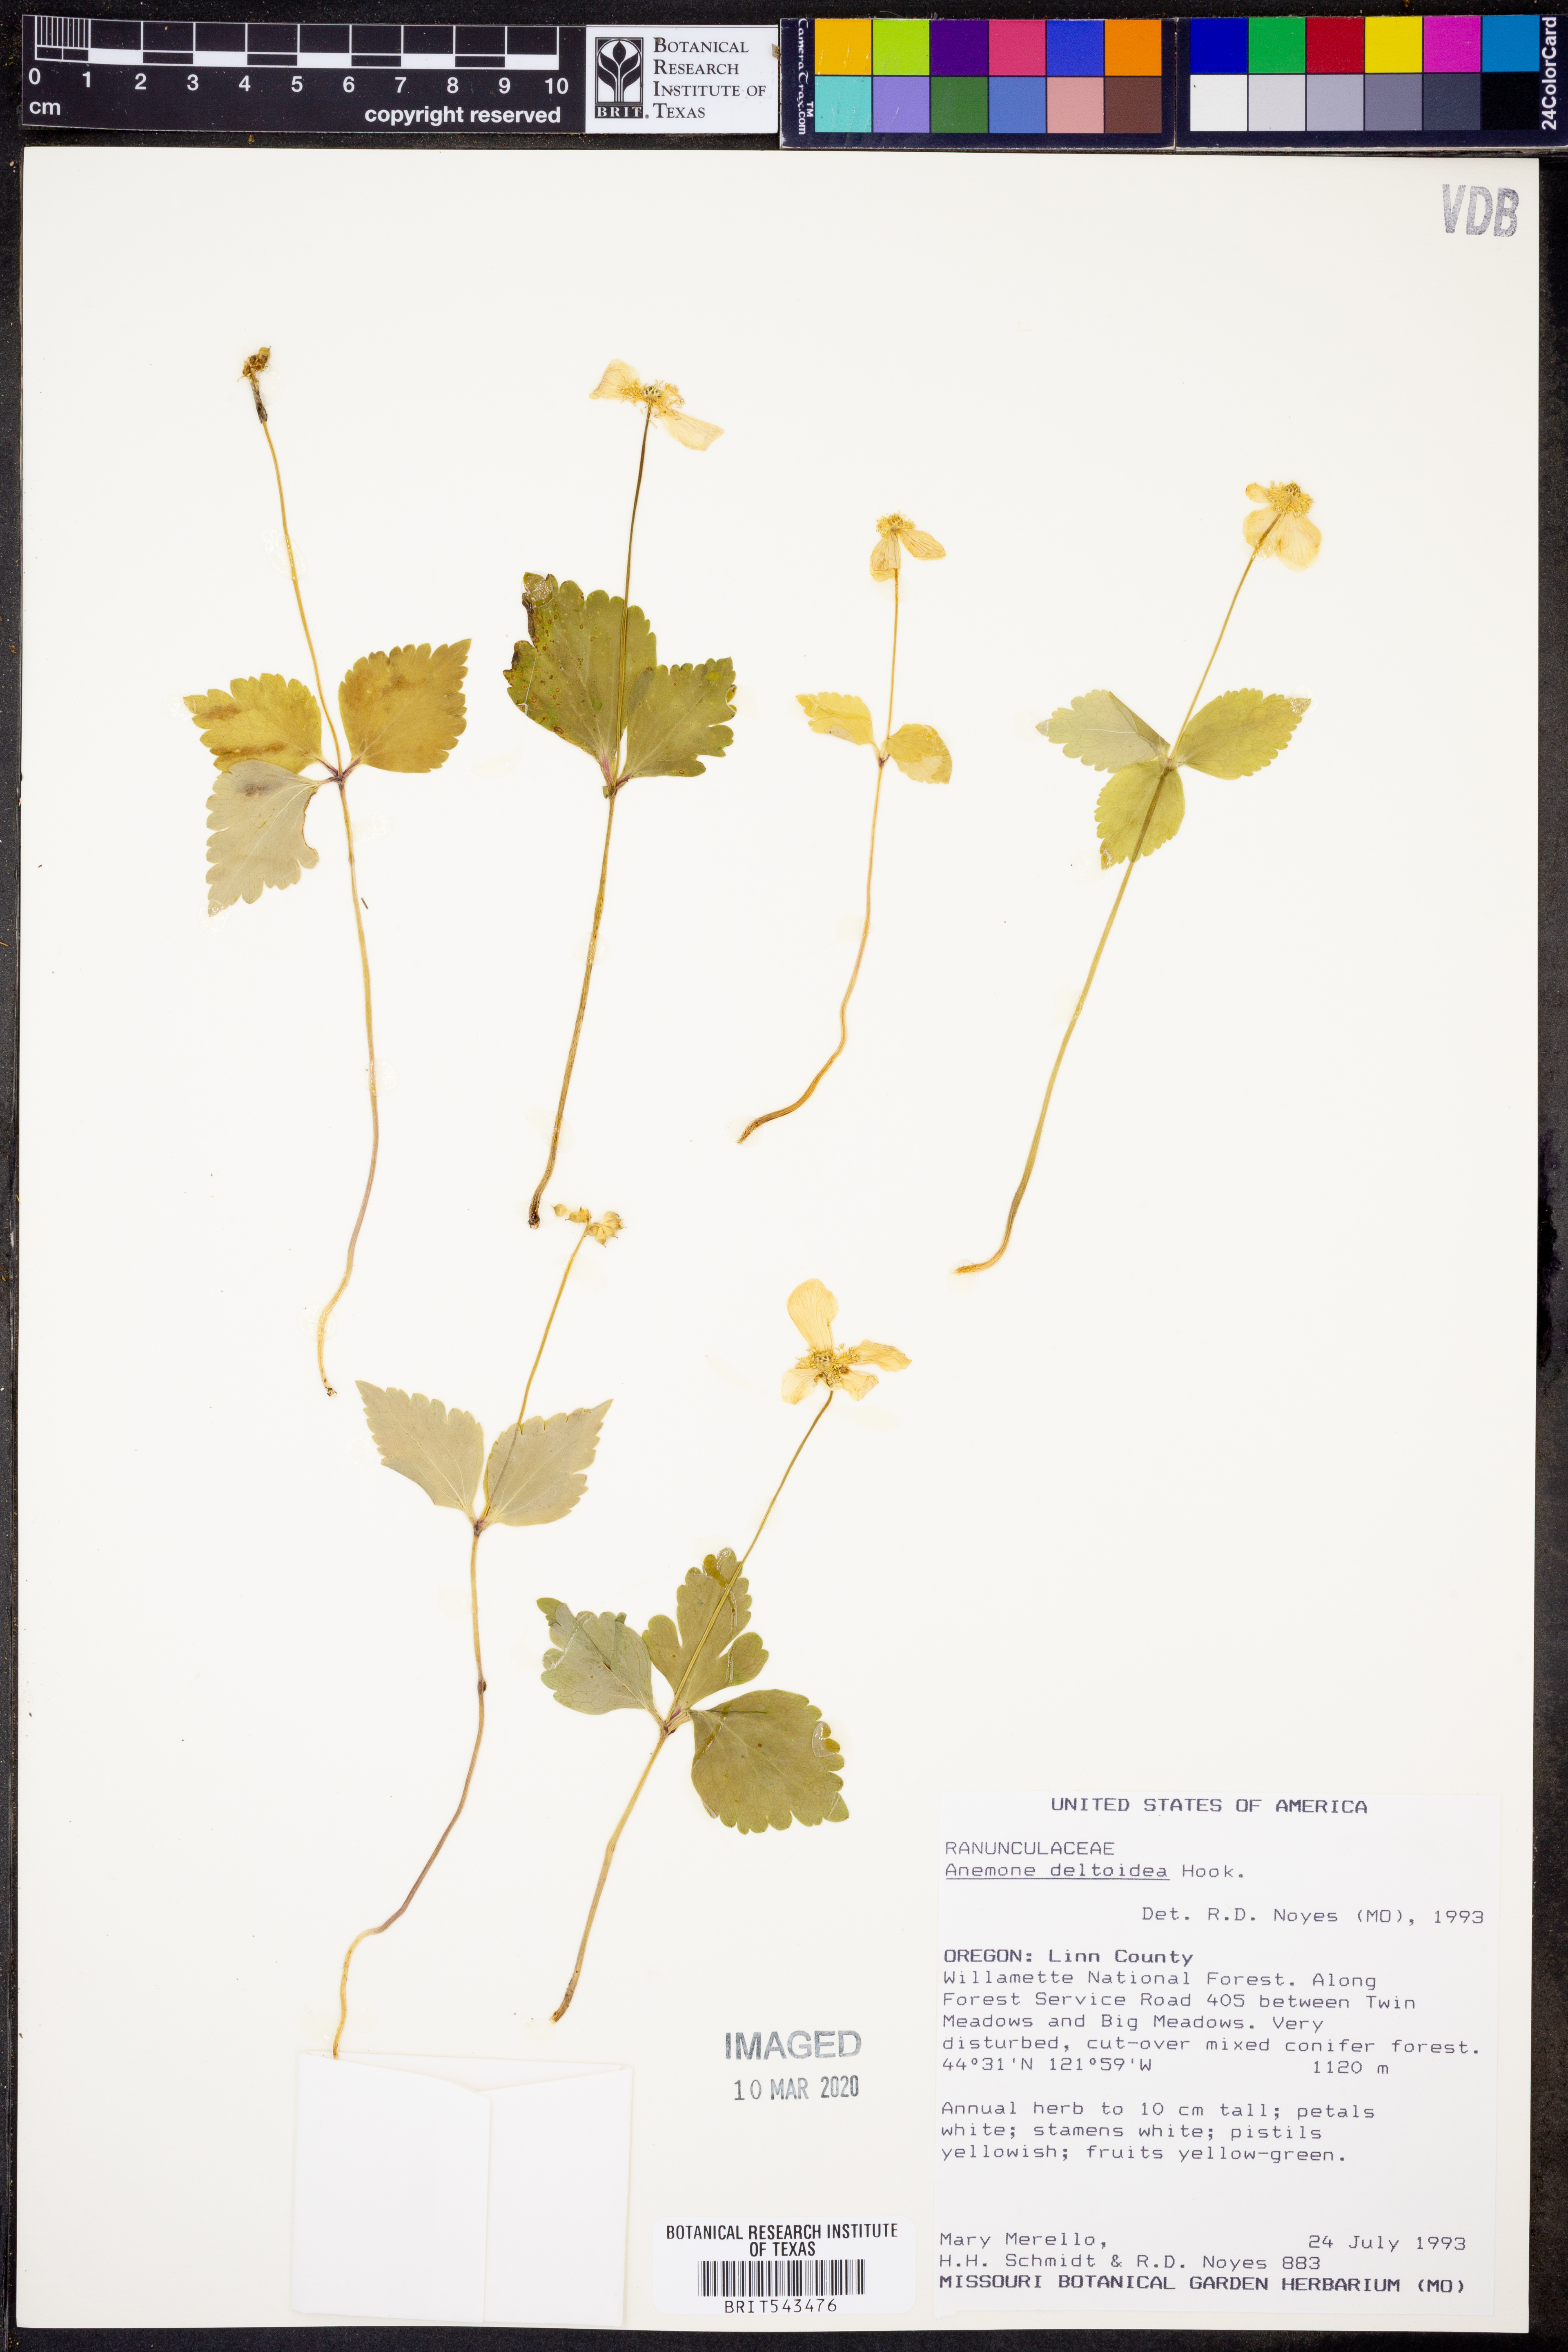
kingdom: Plantae
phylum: Tracheophyta
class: Magnoliopsida
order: Ranunculales
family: Ranunculaceae
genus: Anemonastrum
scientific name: Anemonastrum deltoideum
